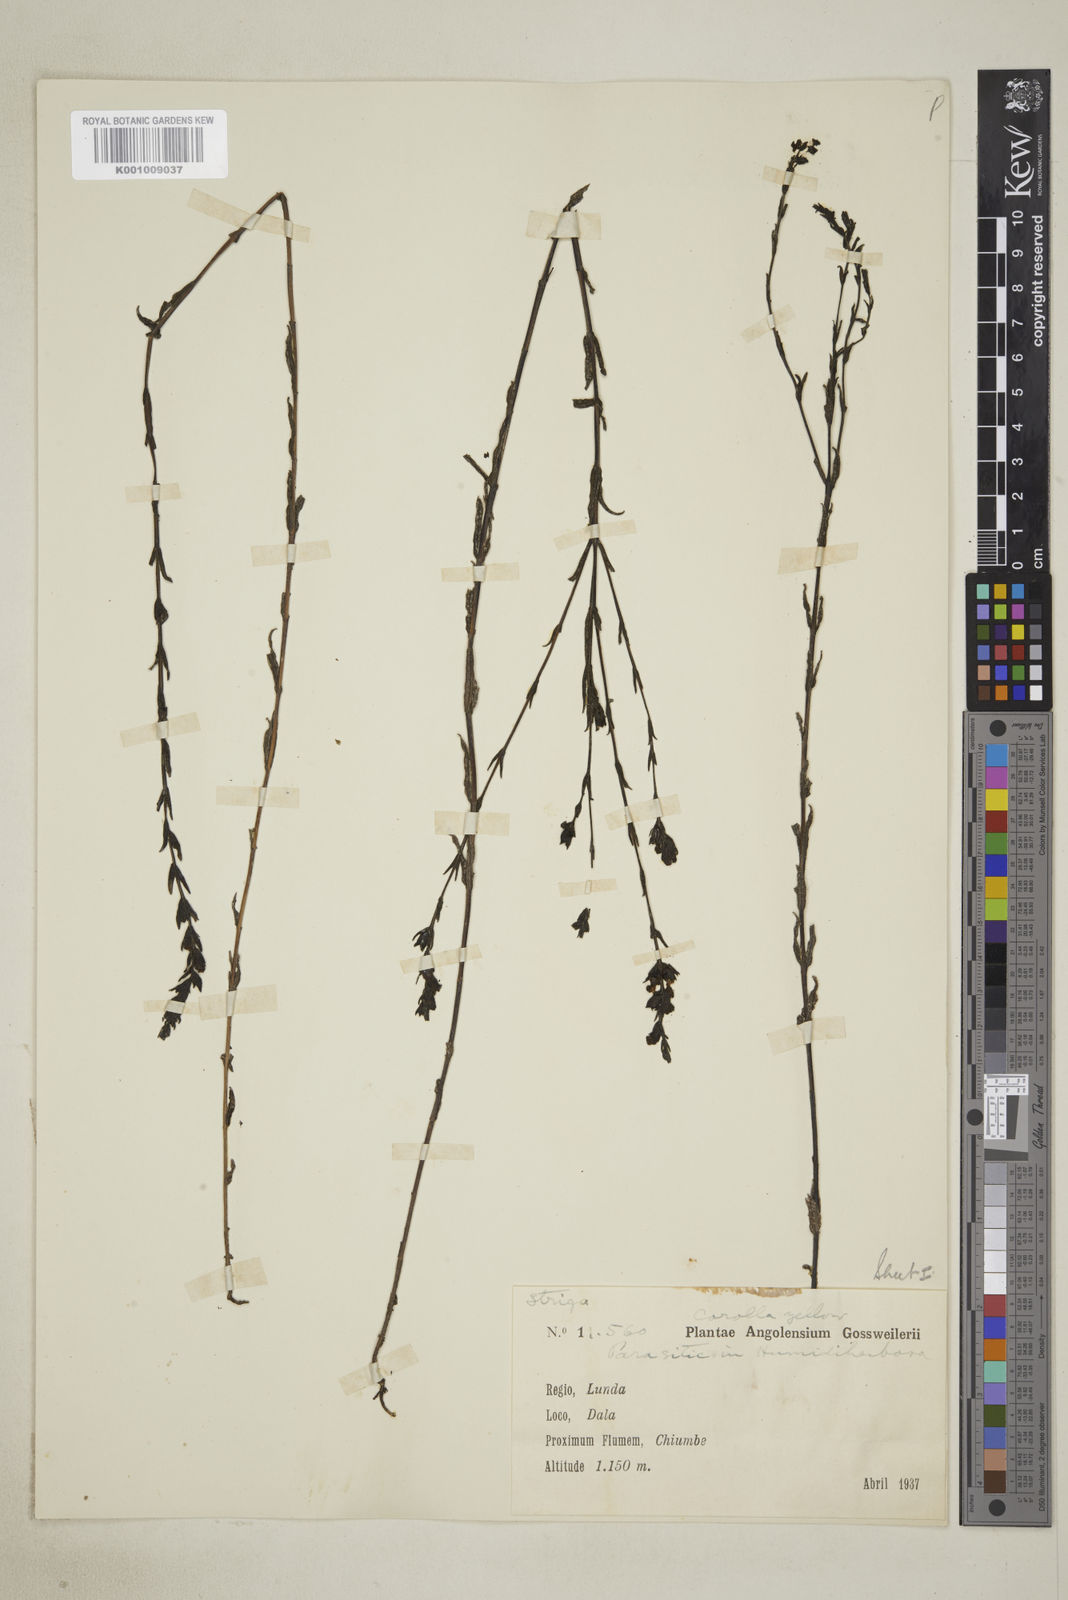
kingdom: Plantae
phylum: Tracheophyta
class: Magnoliopsida
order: Lamiales
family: Orobanchaceae
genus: Alectra
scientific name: Alectra rigida
